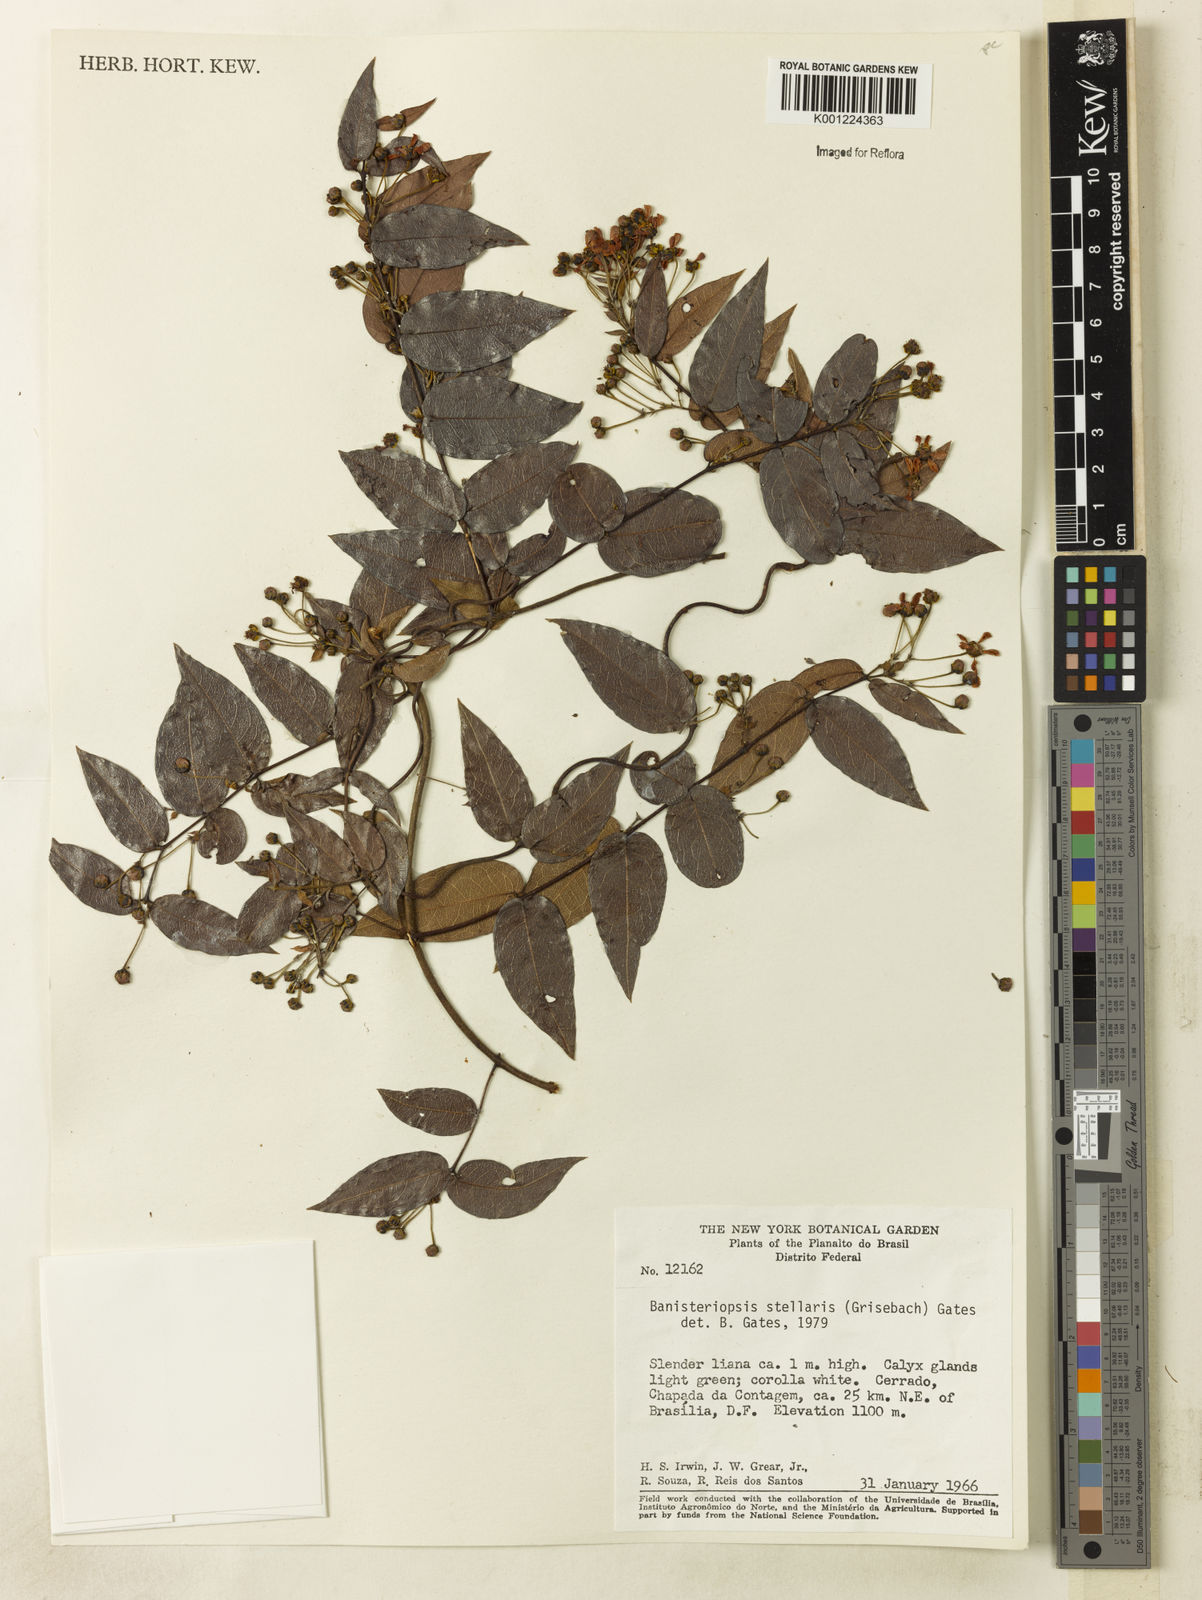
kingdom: Plantae
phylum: Tracheophyta
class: Magnoliopsida
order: Malpighiales
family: Malpighiaceae
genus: Banisteriopsis
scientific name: Banisteriopsis stellaris
